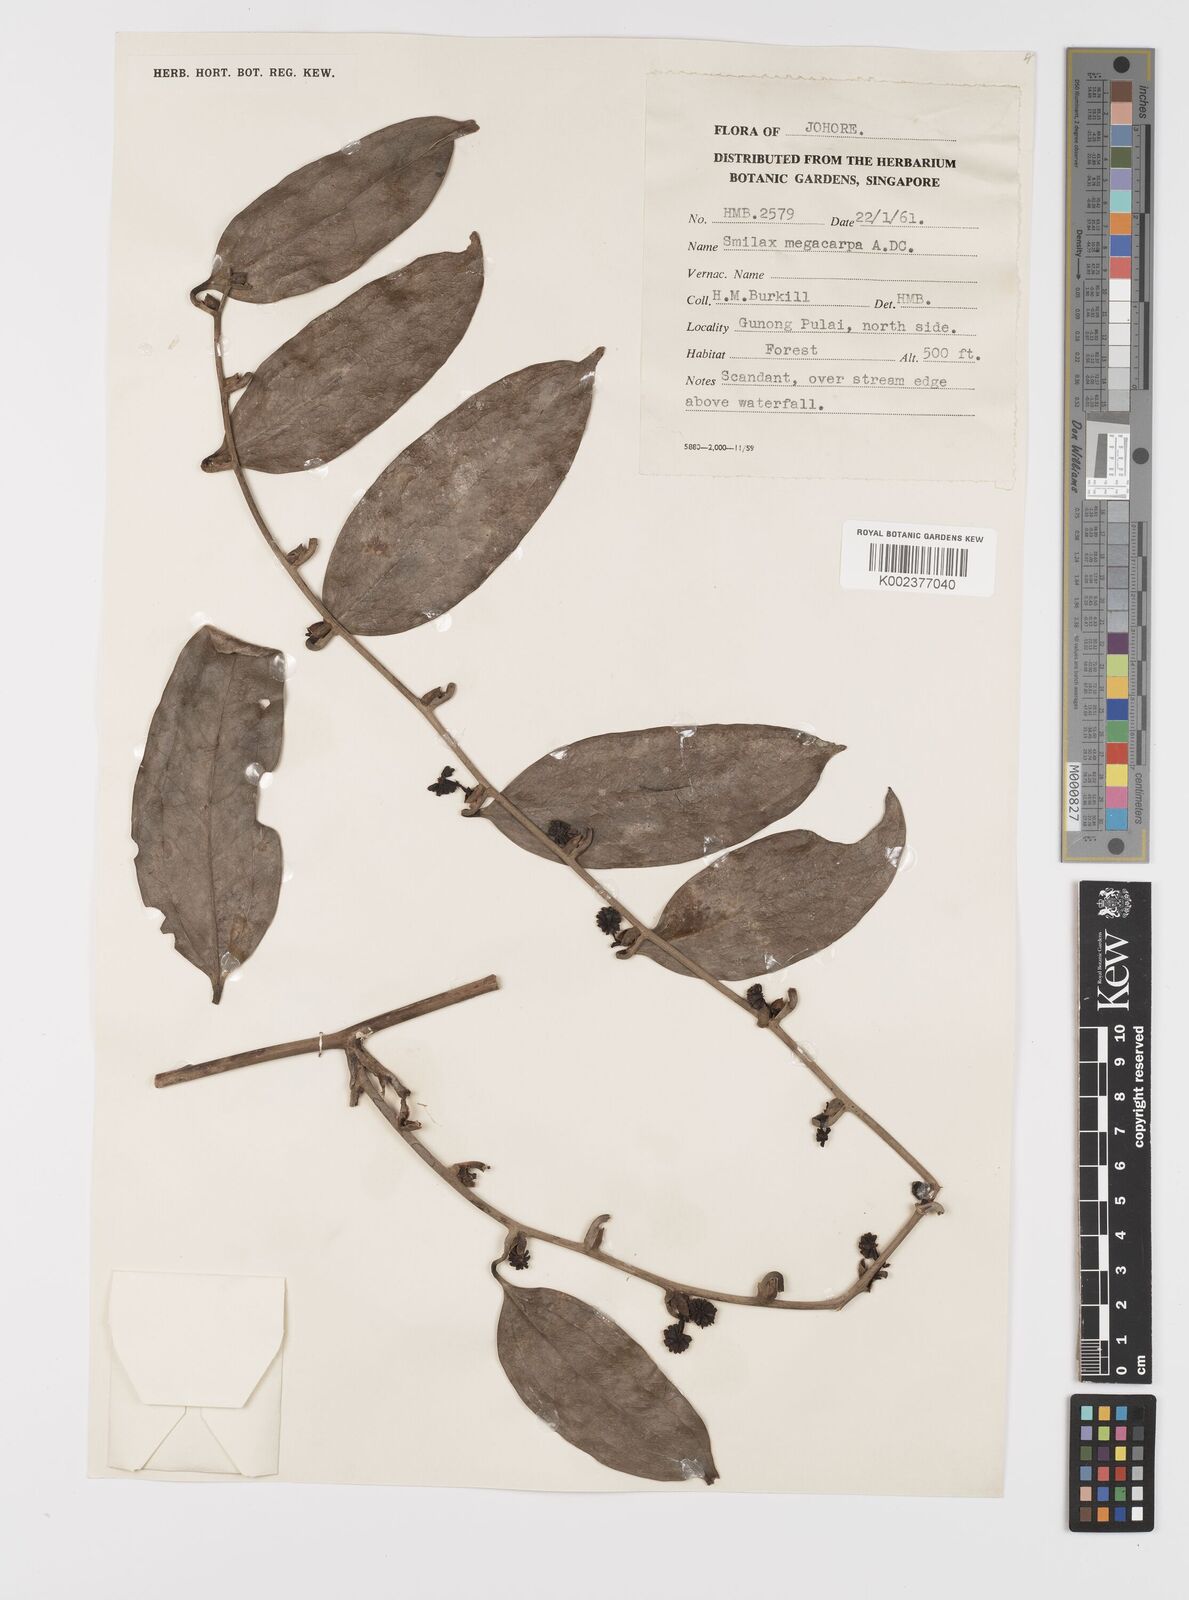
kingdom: Plantae
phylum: Tracheophyta
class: Liliopsida
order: Liliales
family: Smilacaceae
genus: Smilax
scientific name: Smilax megacarpa
